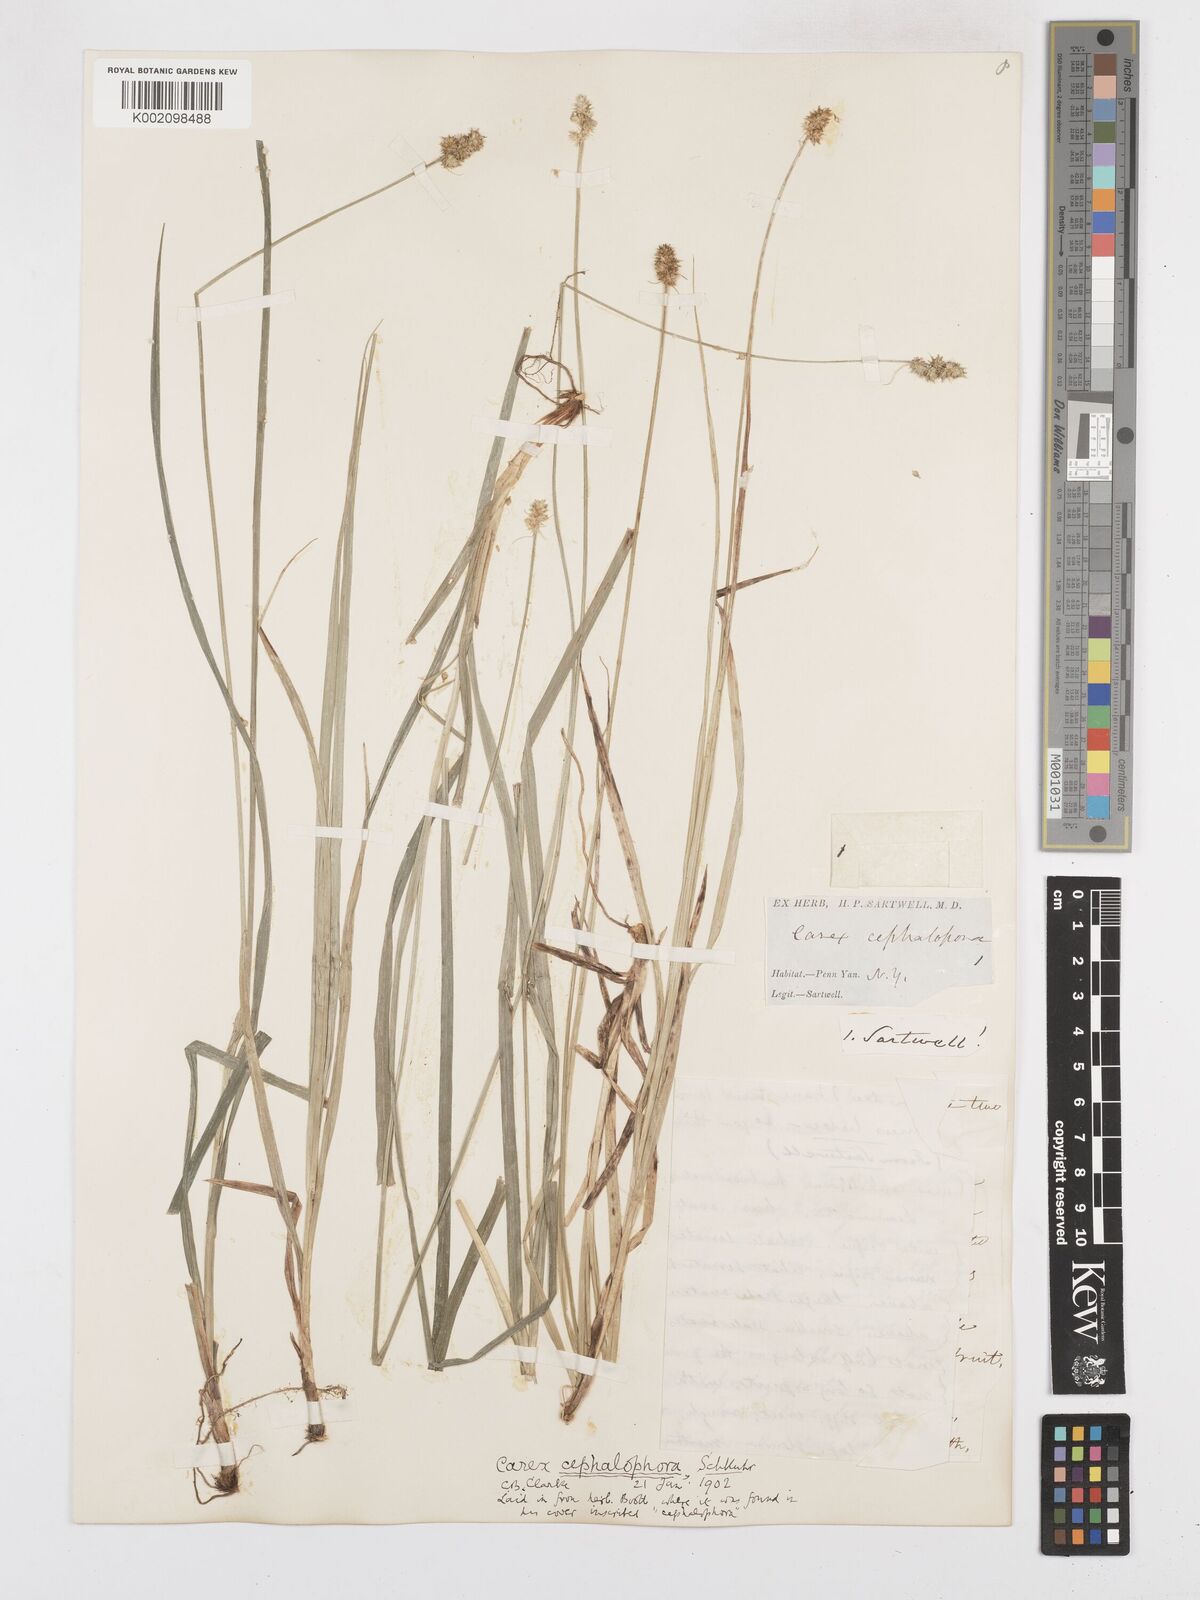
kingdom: Plantae
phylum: Tracheophyta
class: Liliopsida
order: Poales
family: Cyperaceae
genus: Carex
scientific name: Carex cephalophora
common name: Oval-headed sedge
